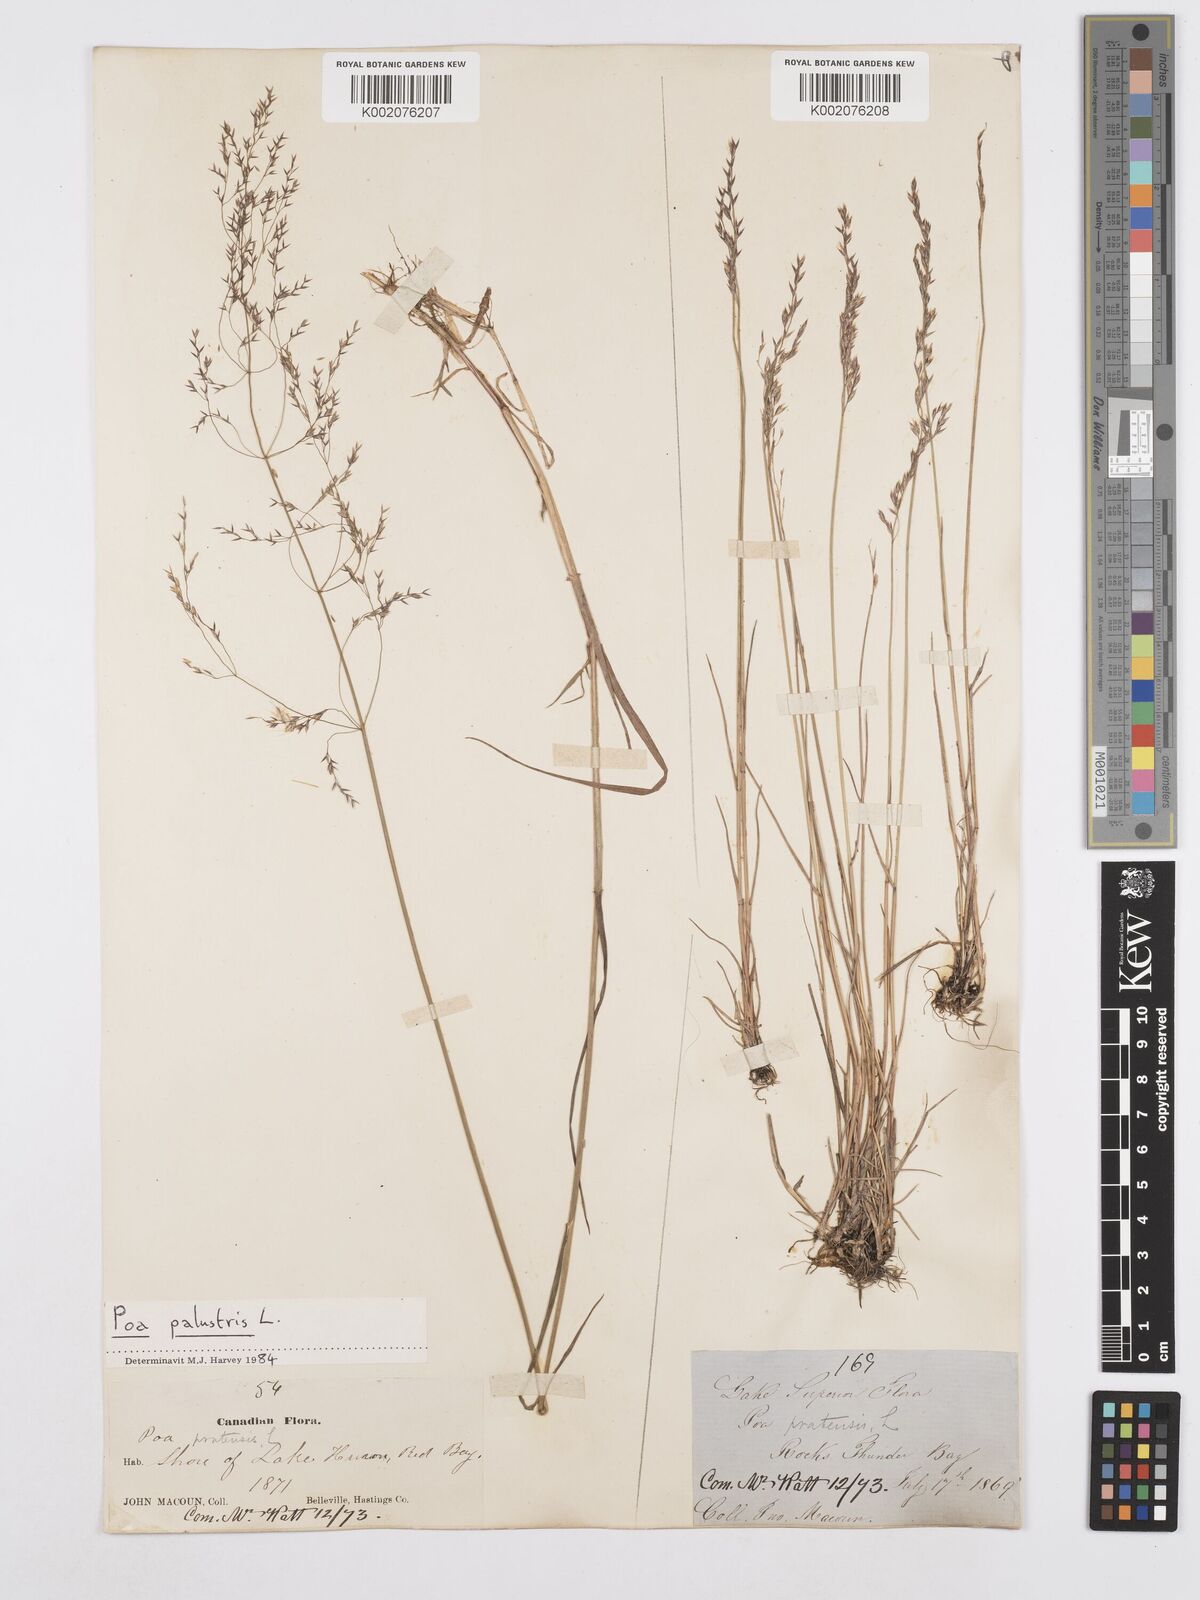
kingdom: Plantae
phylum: Tracheophyta
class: Liliopsida
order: Poales
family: Poaceae
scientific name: Poaceae
